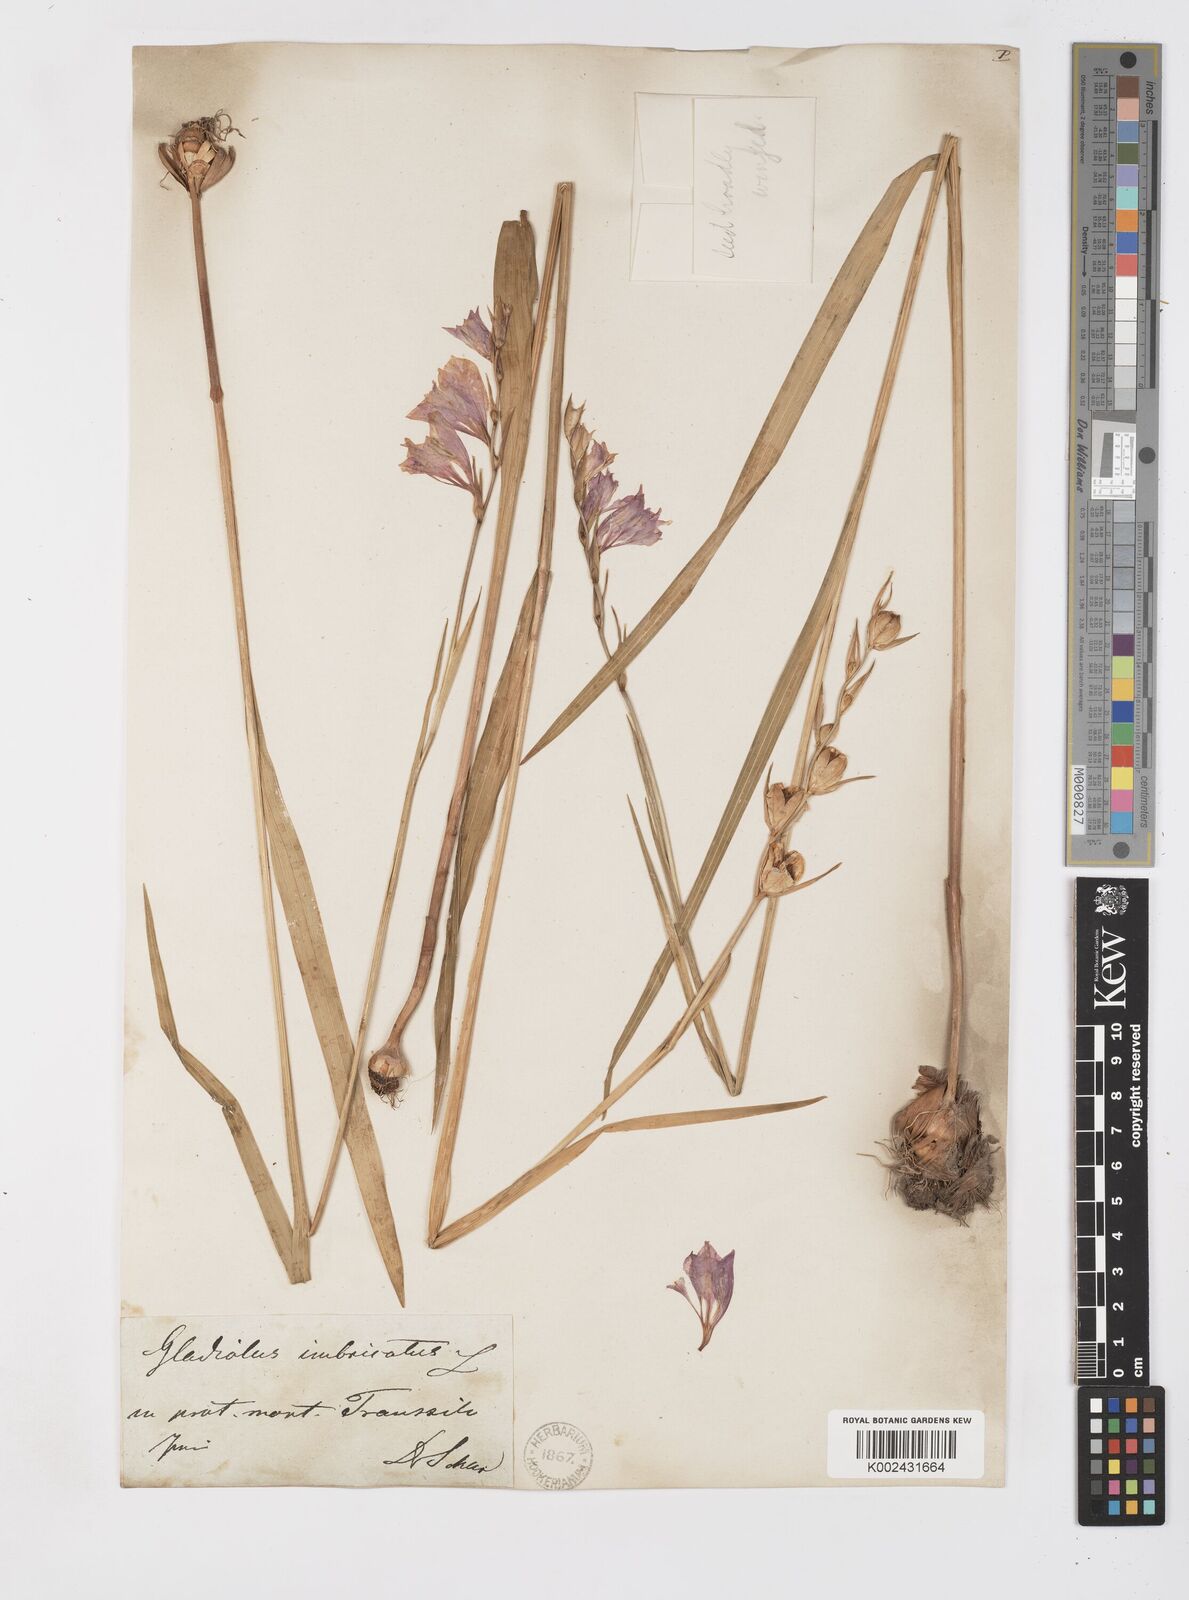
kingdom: Plantae
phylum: Tracheophyta
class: Liliopsida
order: Asparagales
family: Iridaceae
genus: Gladiolus
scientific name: Gladiolus imbricatus
